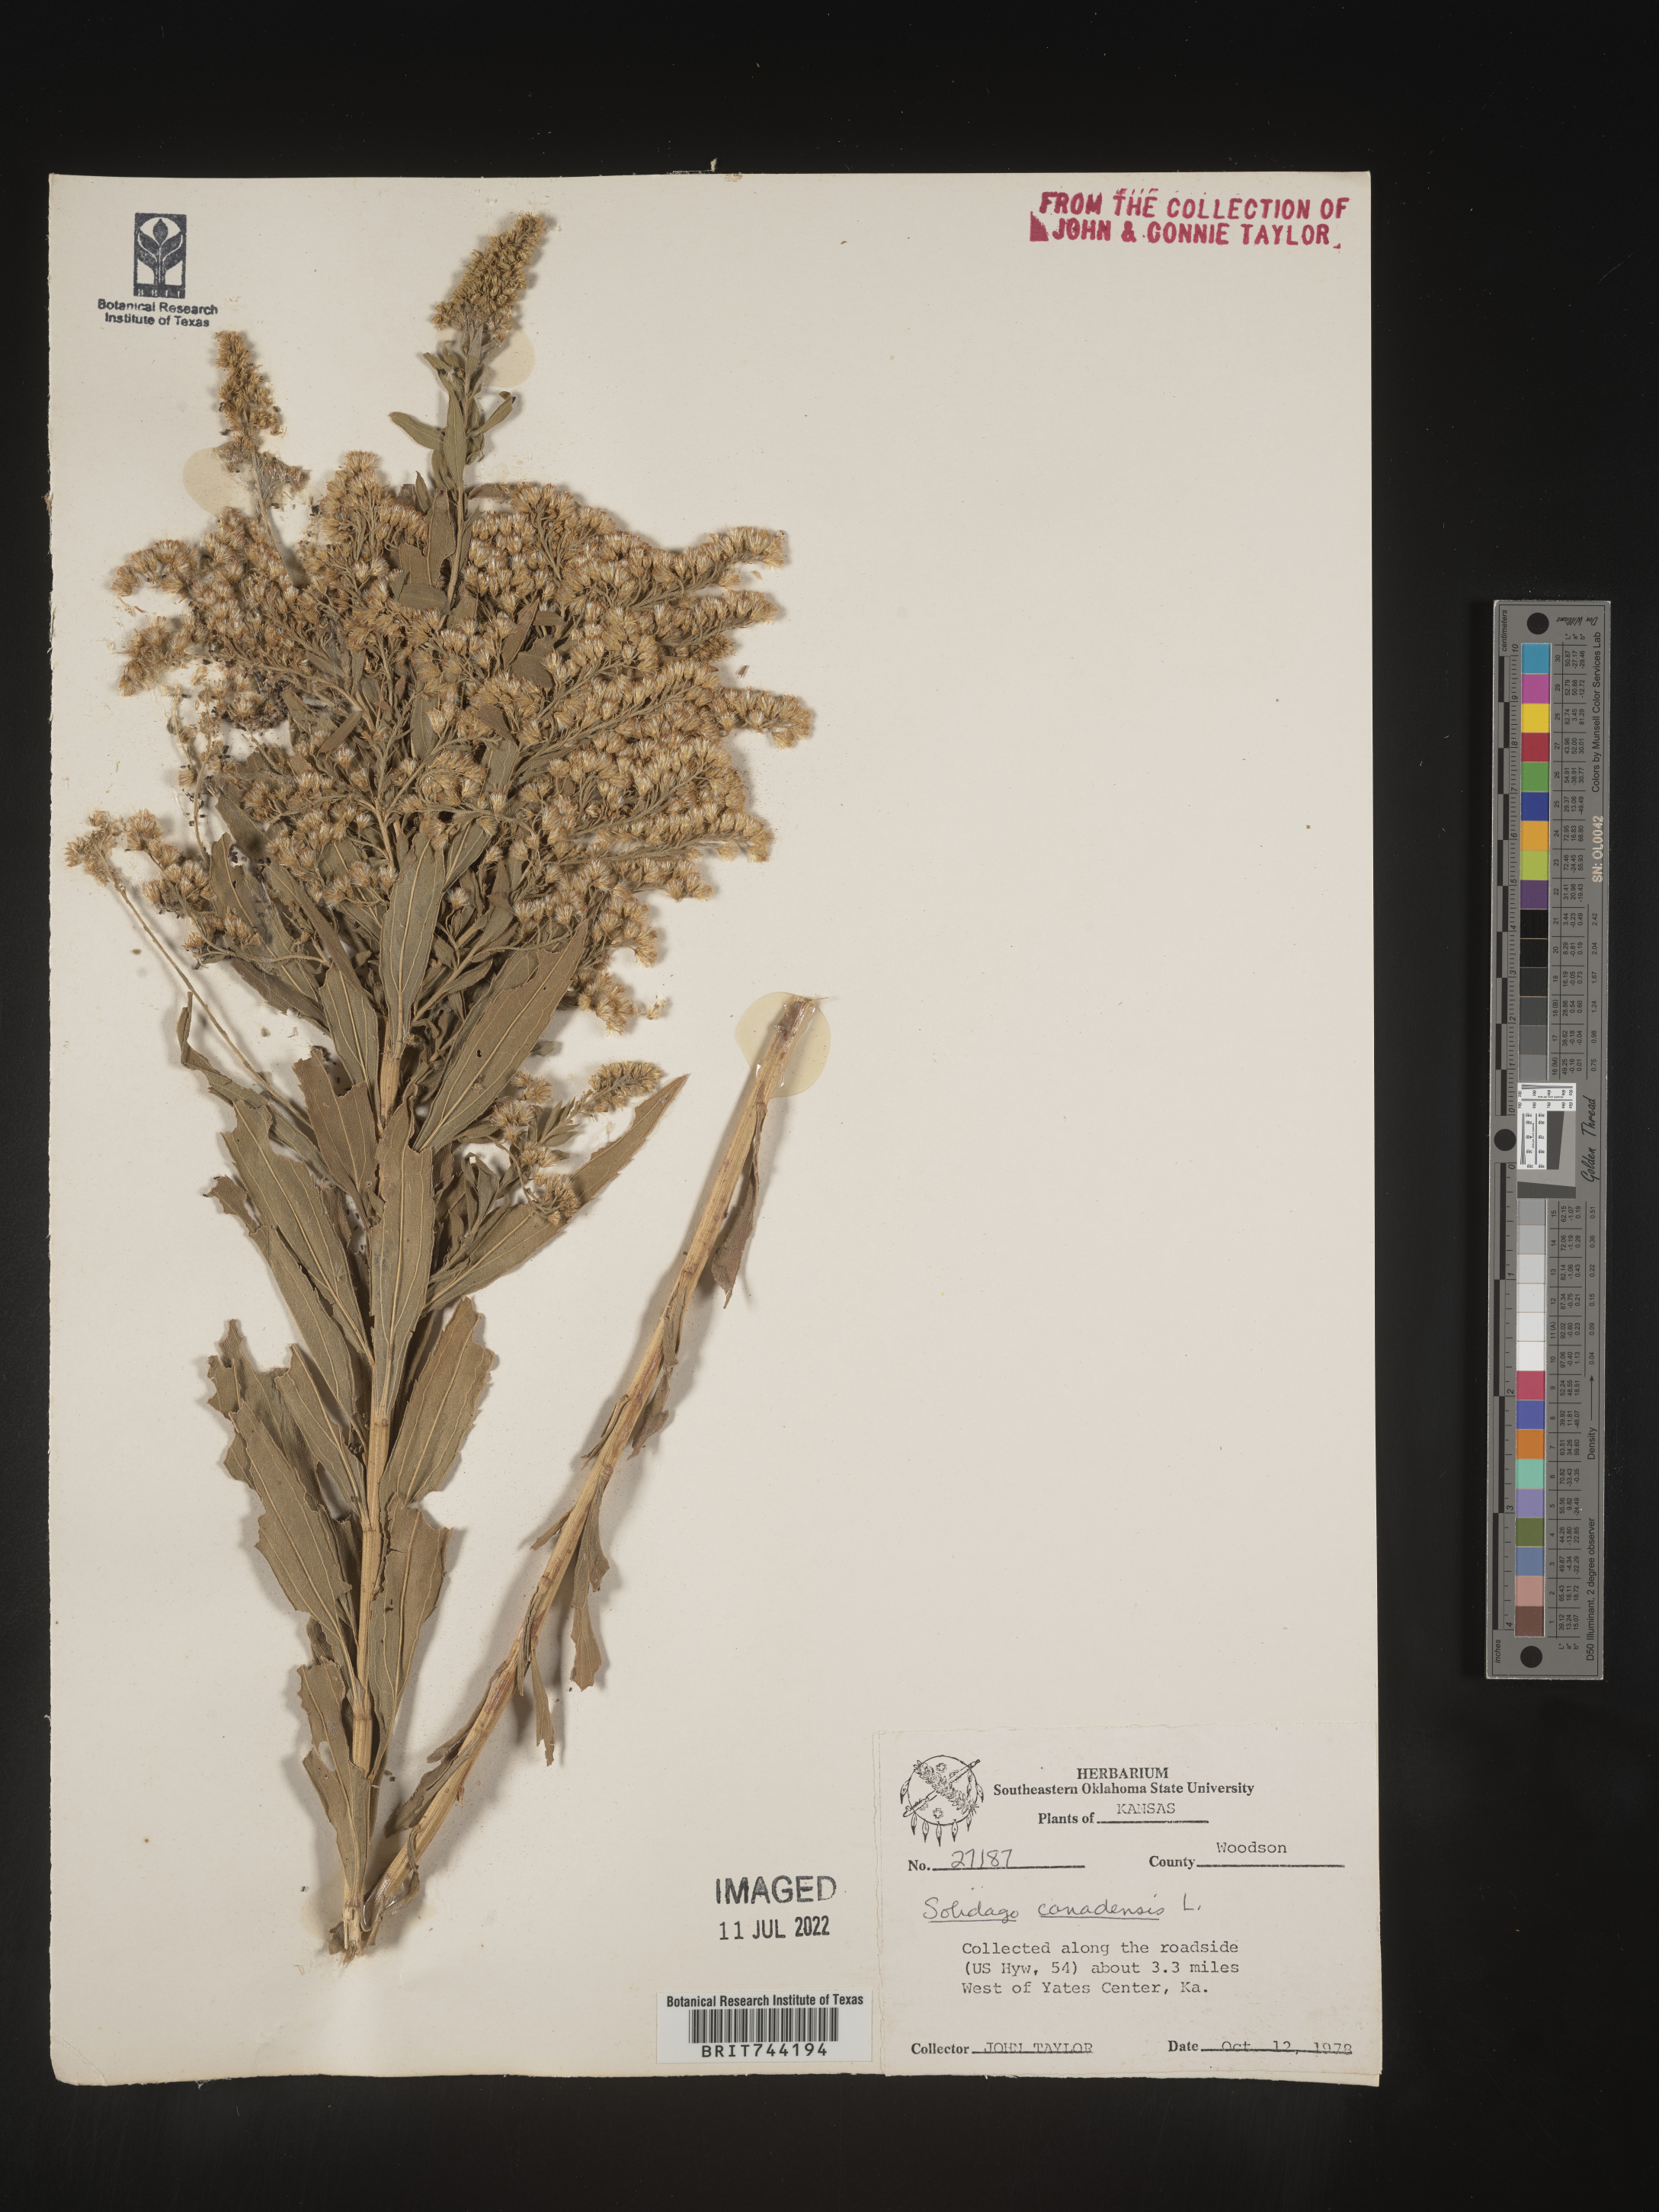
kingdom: Plantae
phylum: Tracheophyta
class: Magnoliopsida
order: Asterales
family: Asteraceae
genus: Solidago
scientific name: Solidago altissima
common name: Late goldenrod
